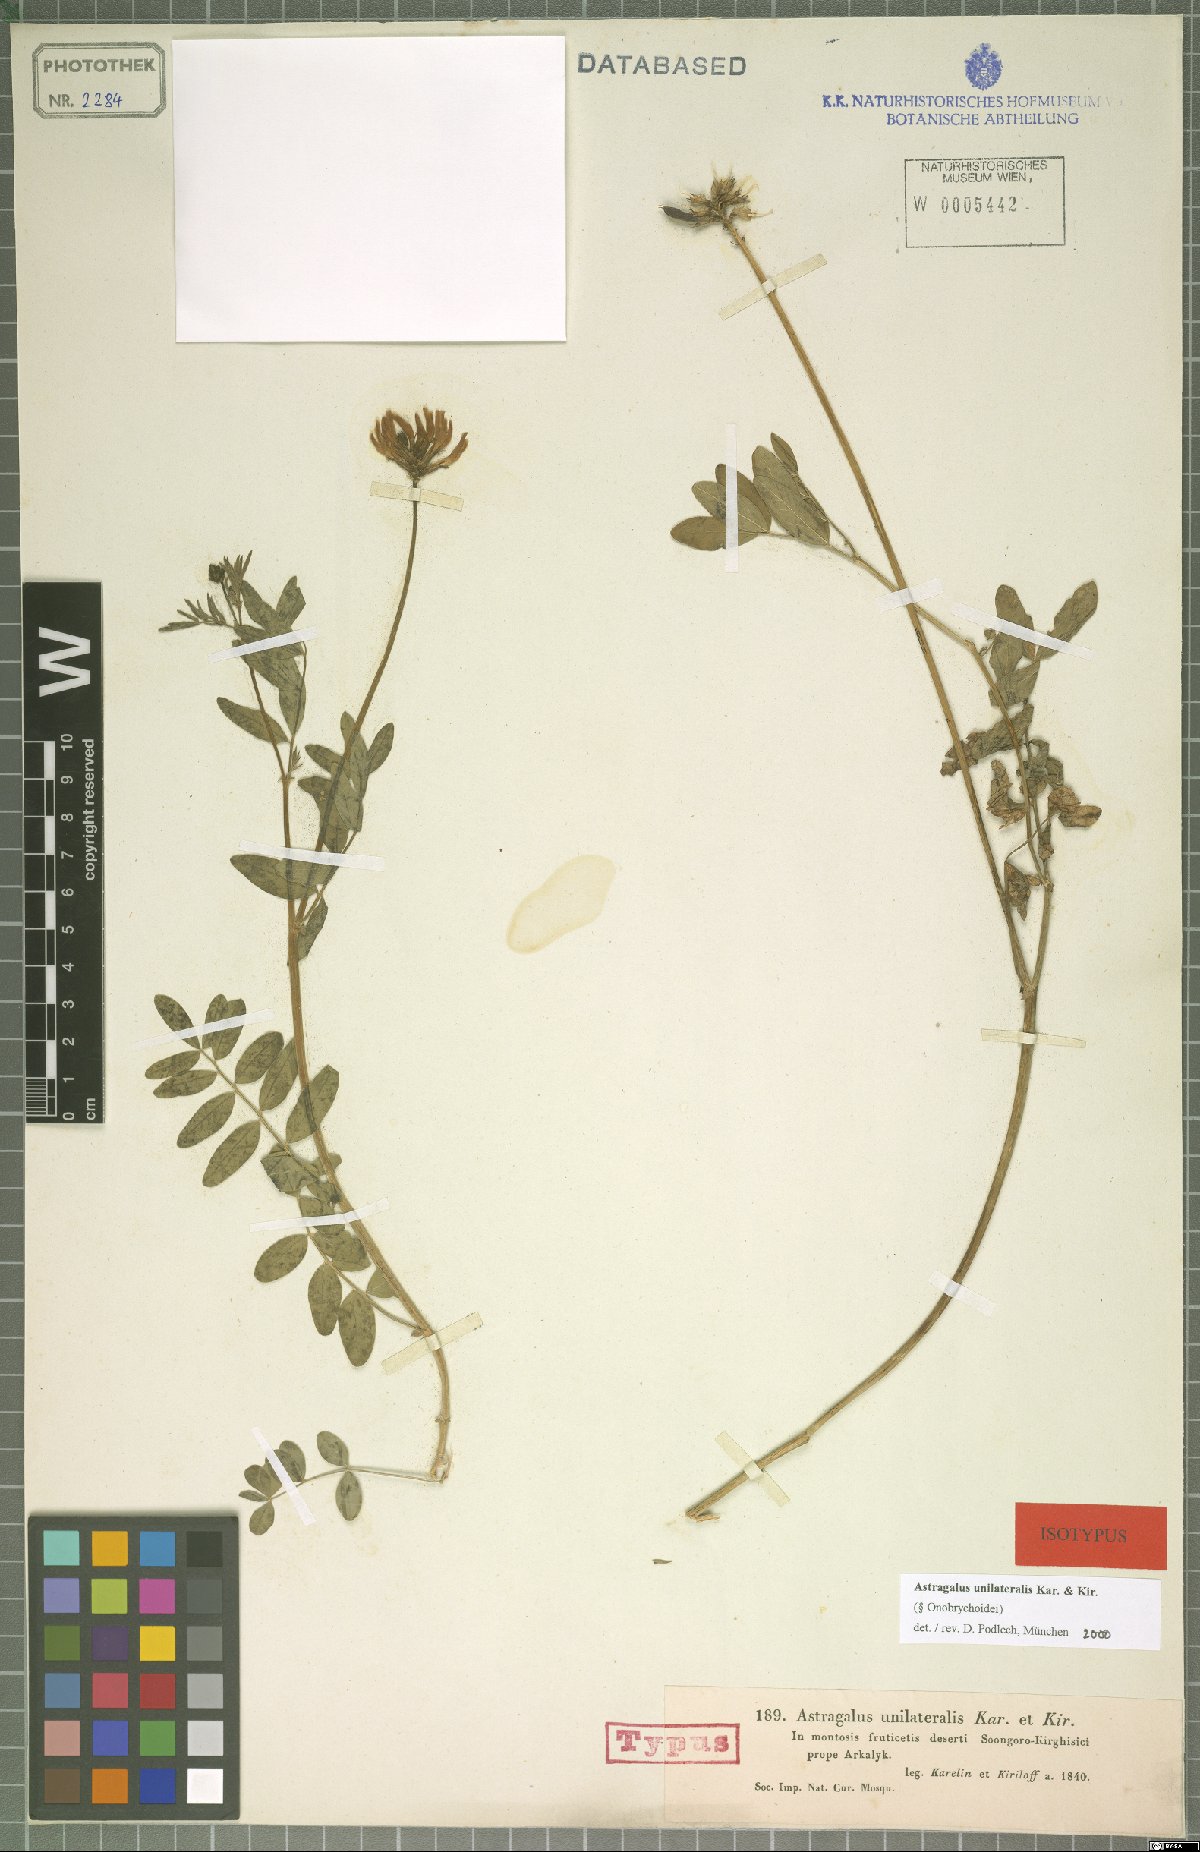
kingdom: Plantae
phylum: Tracheophyta
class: Magnoliopsida
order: Fabales
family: Fabaceae
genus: Astragalus
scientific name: Astragalus unilateralis
